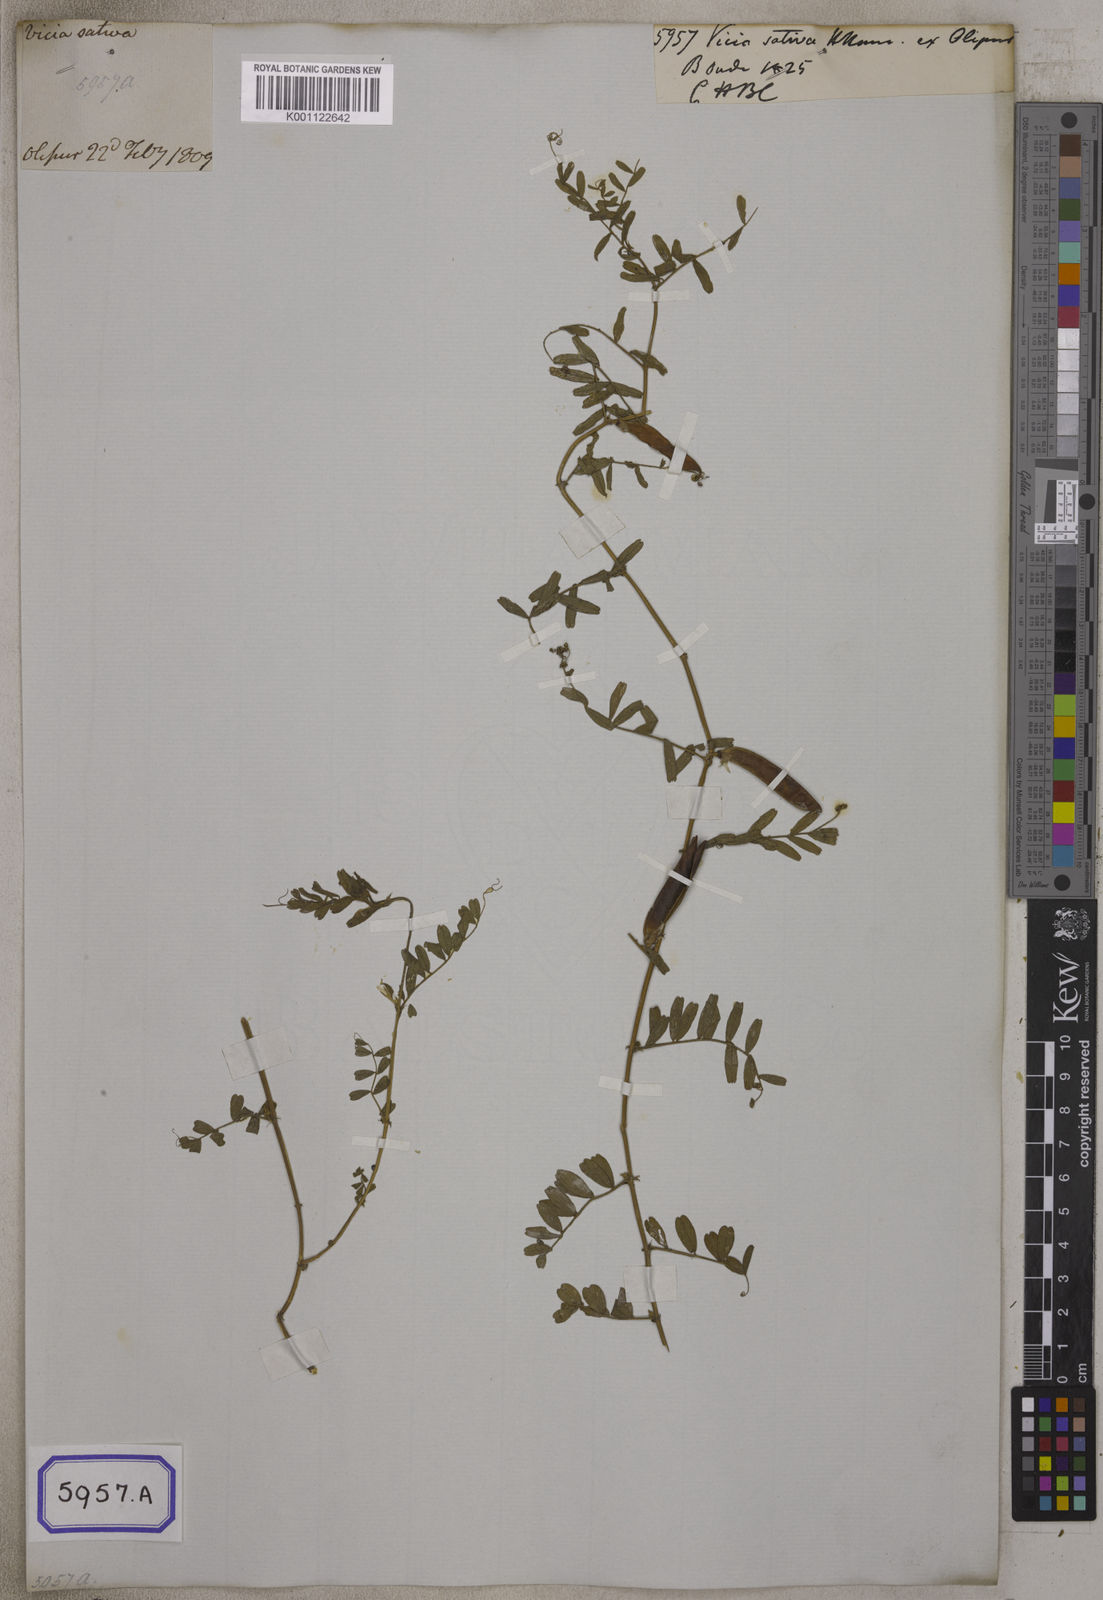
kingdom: Plantae
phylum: Tracheophyta
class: Magnoliopsida
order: Fabales
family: Fabaceae
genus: Vicia
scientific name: Vicia sativa
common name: Garden vetch
